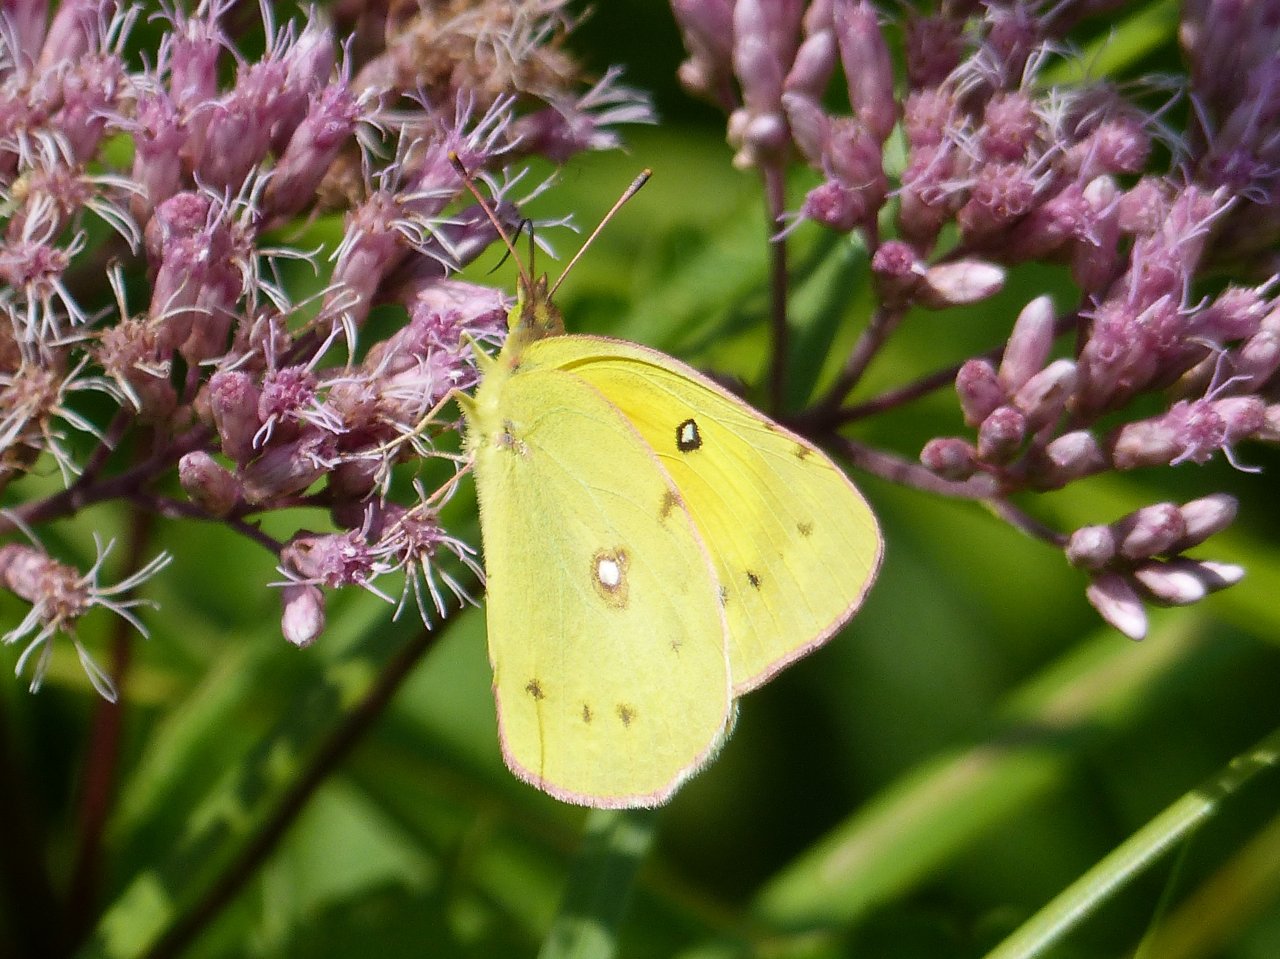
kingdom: Animalia
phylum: Arthropoda
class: Insecta
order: Lepidoptera
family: Pieridae
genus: Colias
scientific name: Colias eurytheme
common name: Orange Sulphur
